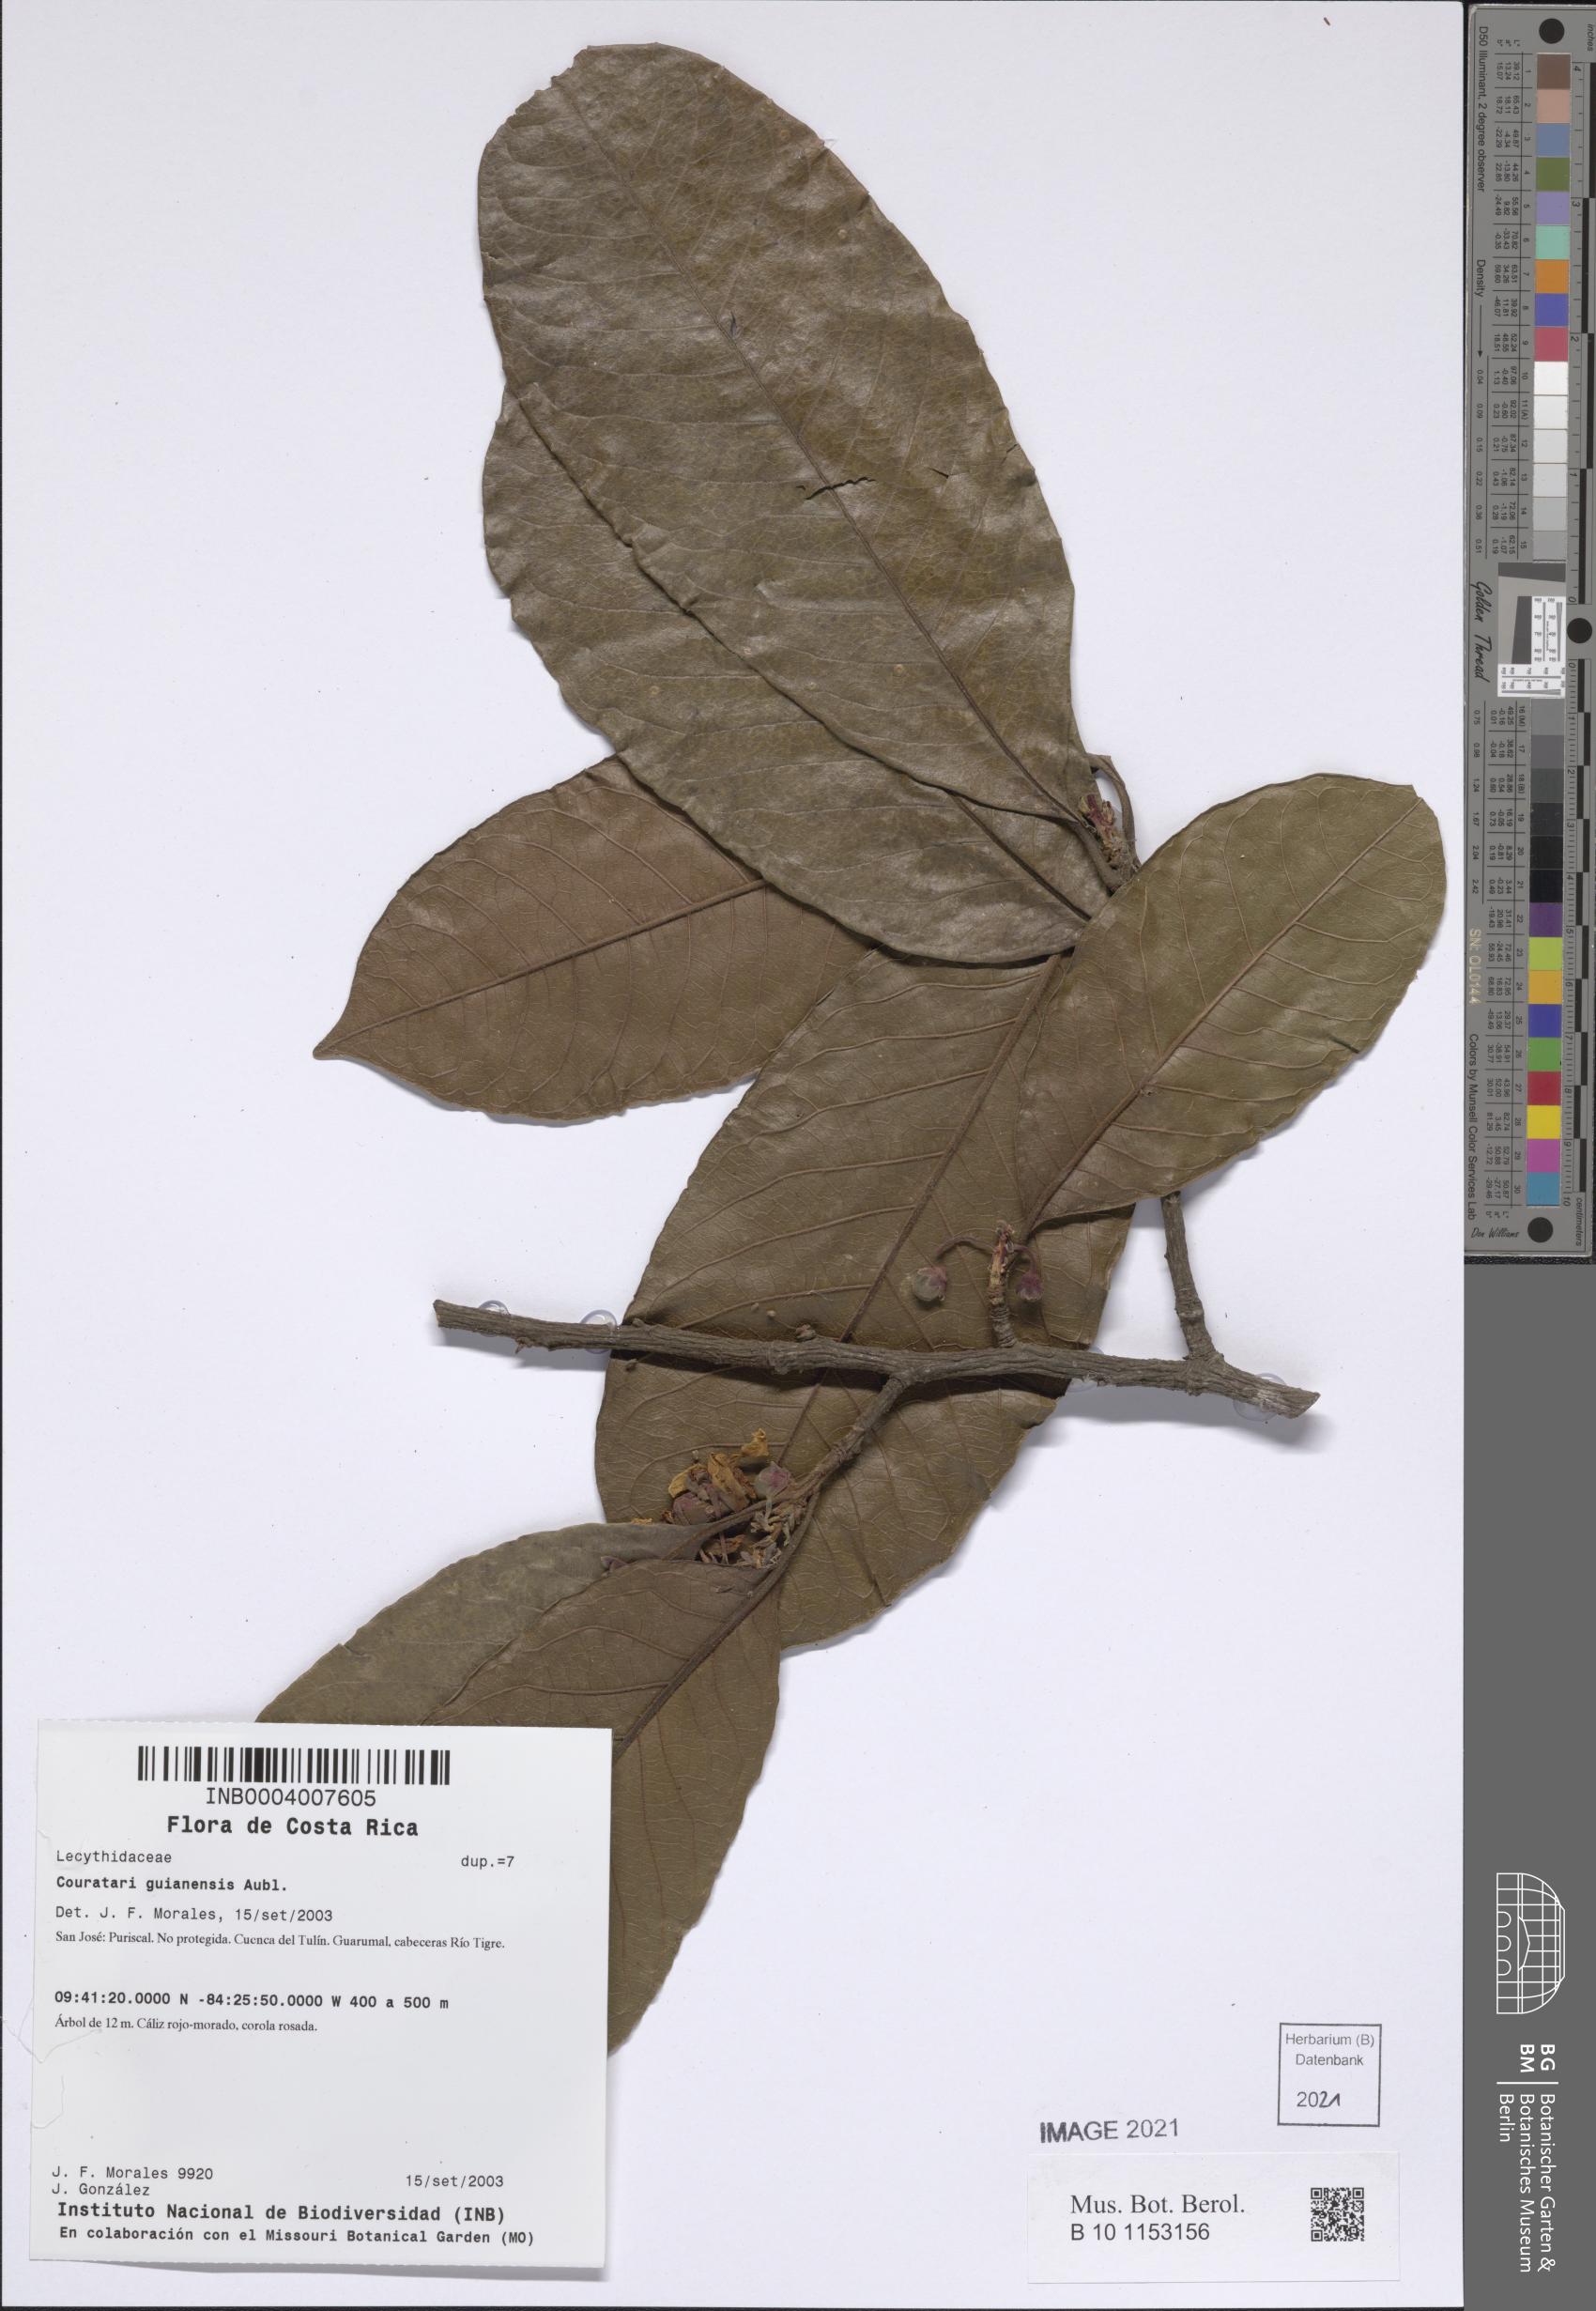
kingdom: Plantae
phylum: Tracheophyta
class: Magnoliopsida
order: Ericales
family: Lecythidaceae
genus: Couratari
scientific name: Couratari guianensis
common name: Fine-leaf wadara
